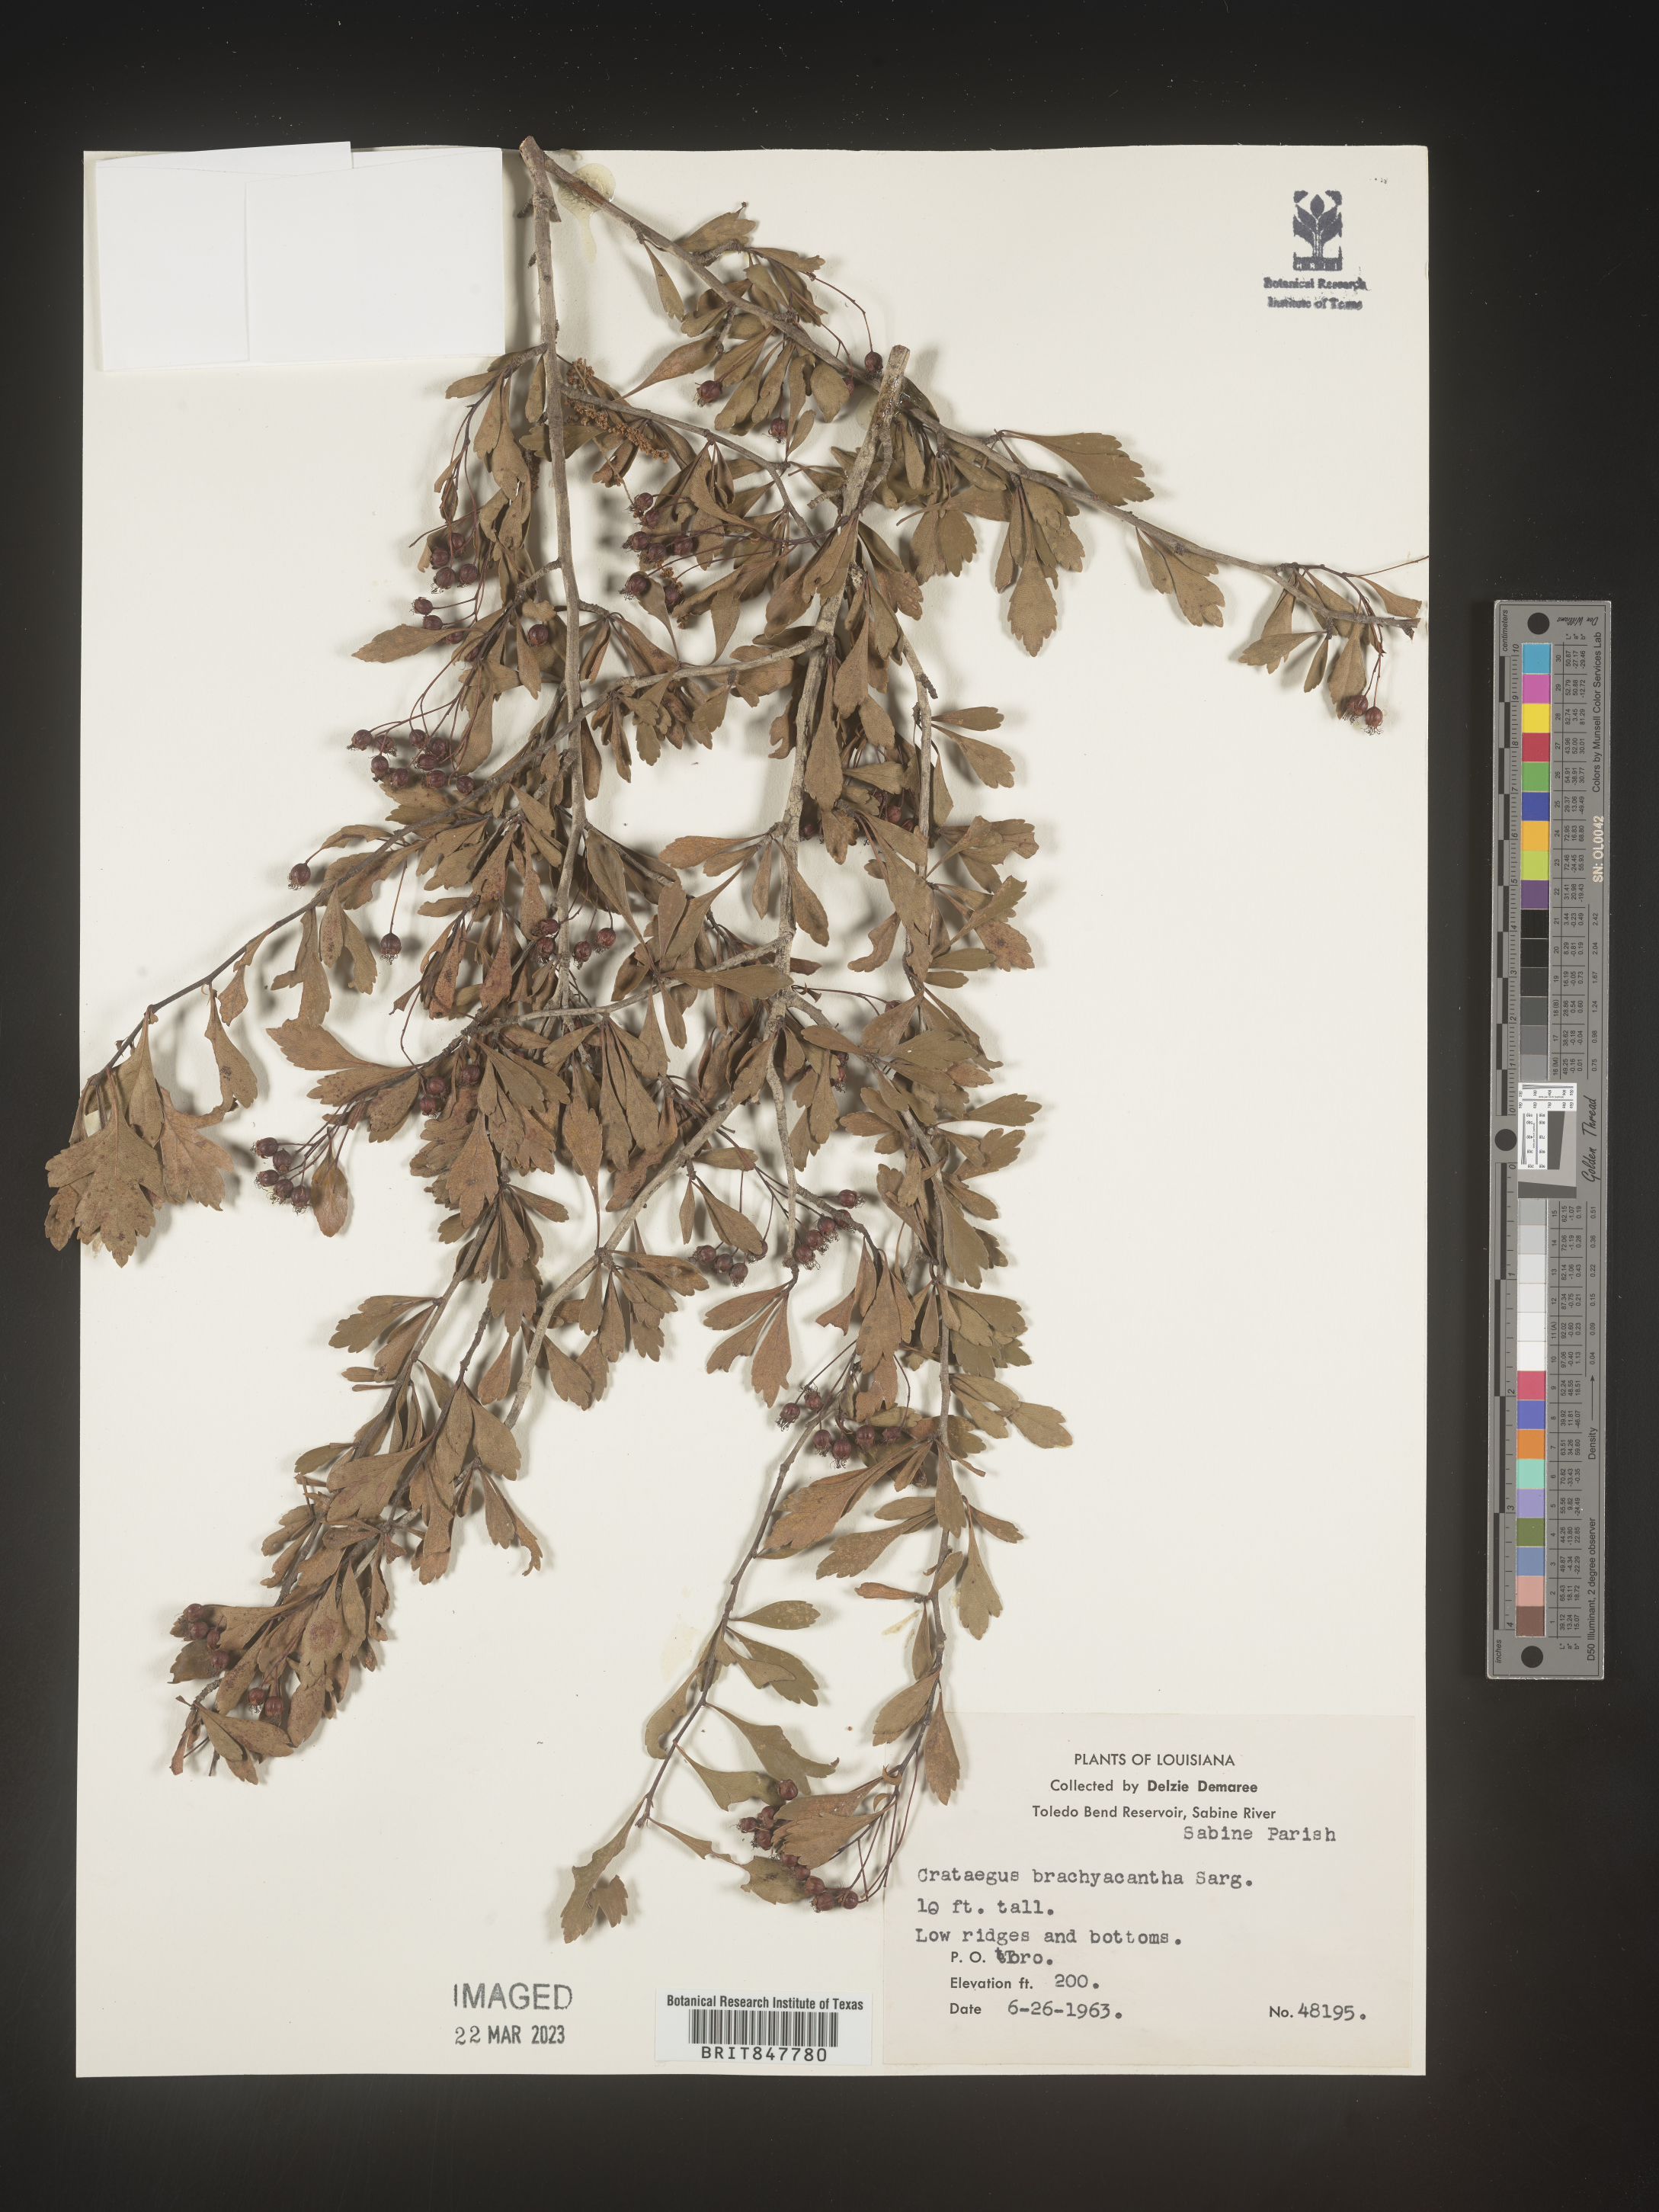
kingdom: Plantae
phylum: Tracheophyta
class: Magnoliopsida
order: Rosales
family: Rosaceae
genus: Crataegus
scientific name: Crataegus brachyacantha
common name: Blueberry-hawthorn
